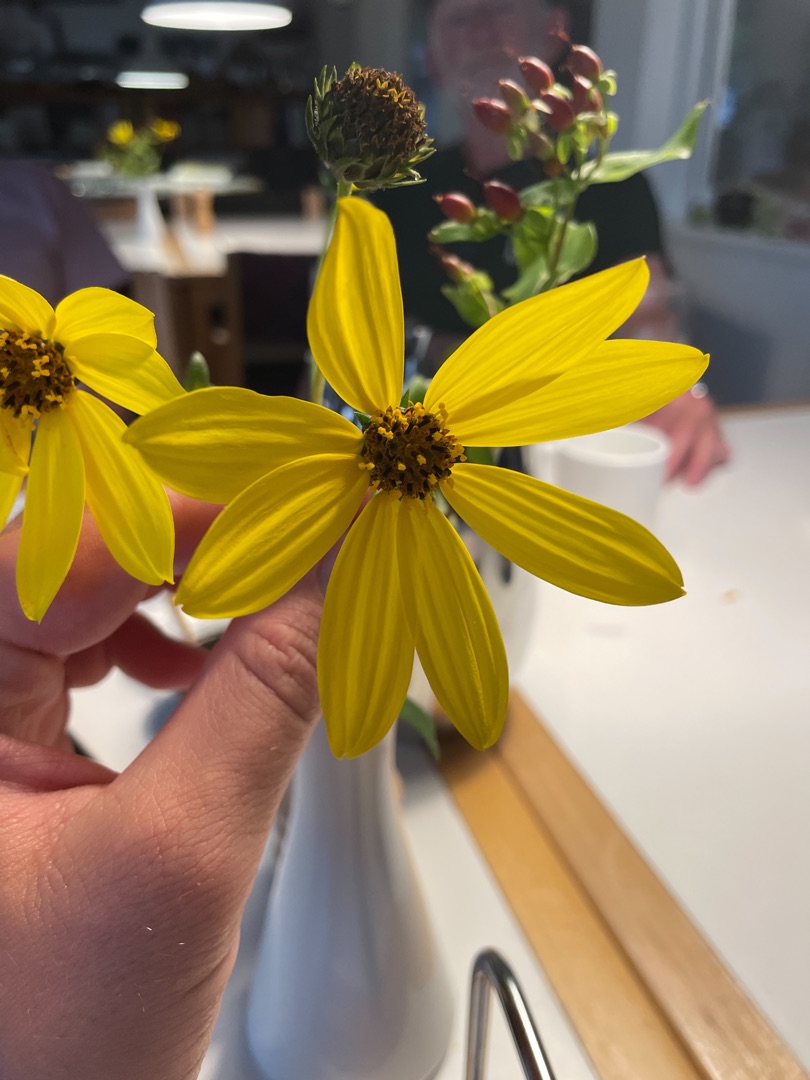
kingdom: Plantae
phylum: Tracheophyta
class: Magnoliopsida
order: Asterales
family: Asteraceae
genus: Helianthus
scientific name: Helianthus laetiflorus
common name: Staude-solsikke × jordskok
